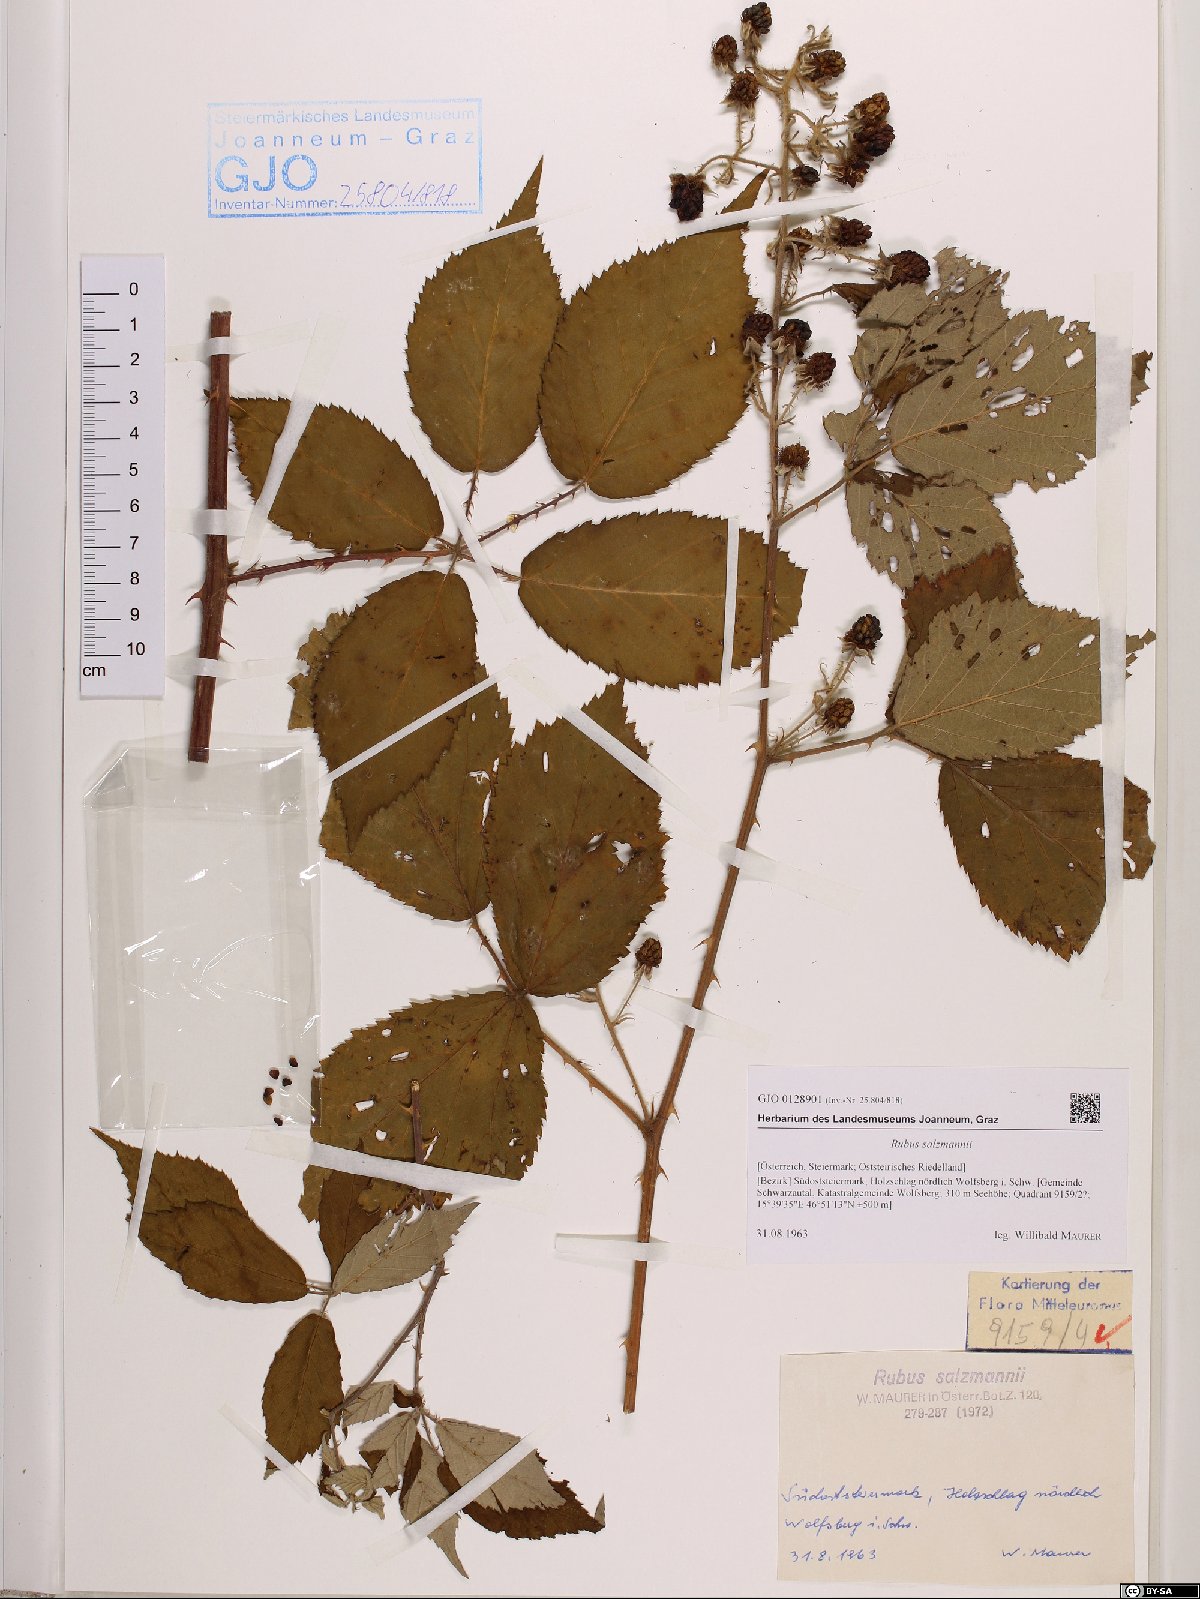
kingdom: Plantae
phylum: Tracheophyta
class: Magnoliopsida
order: Rosales
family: Rosaceae
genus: Rubus
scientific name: Rubus salzmannii
